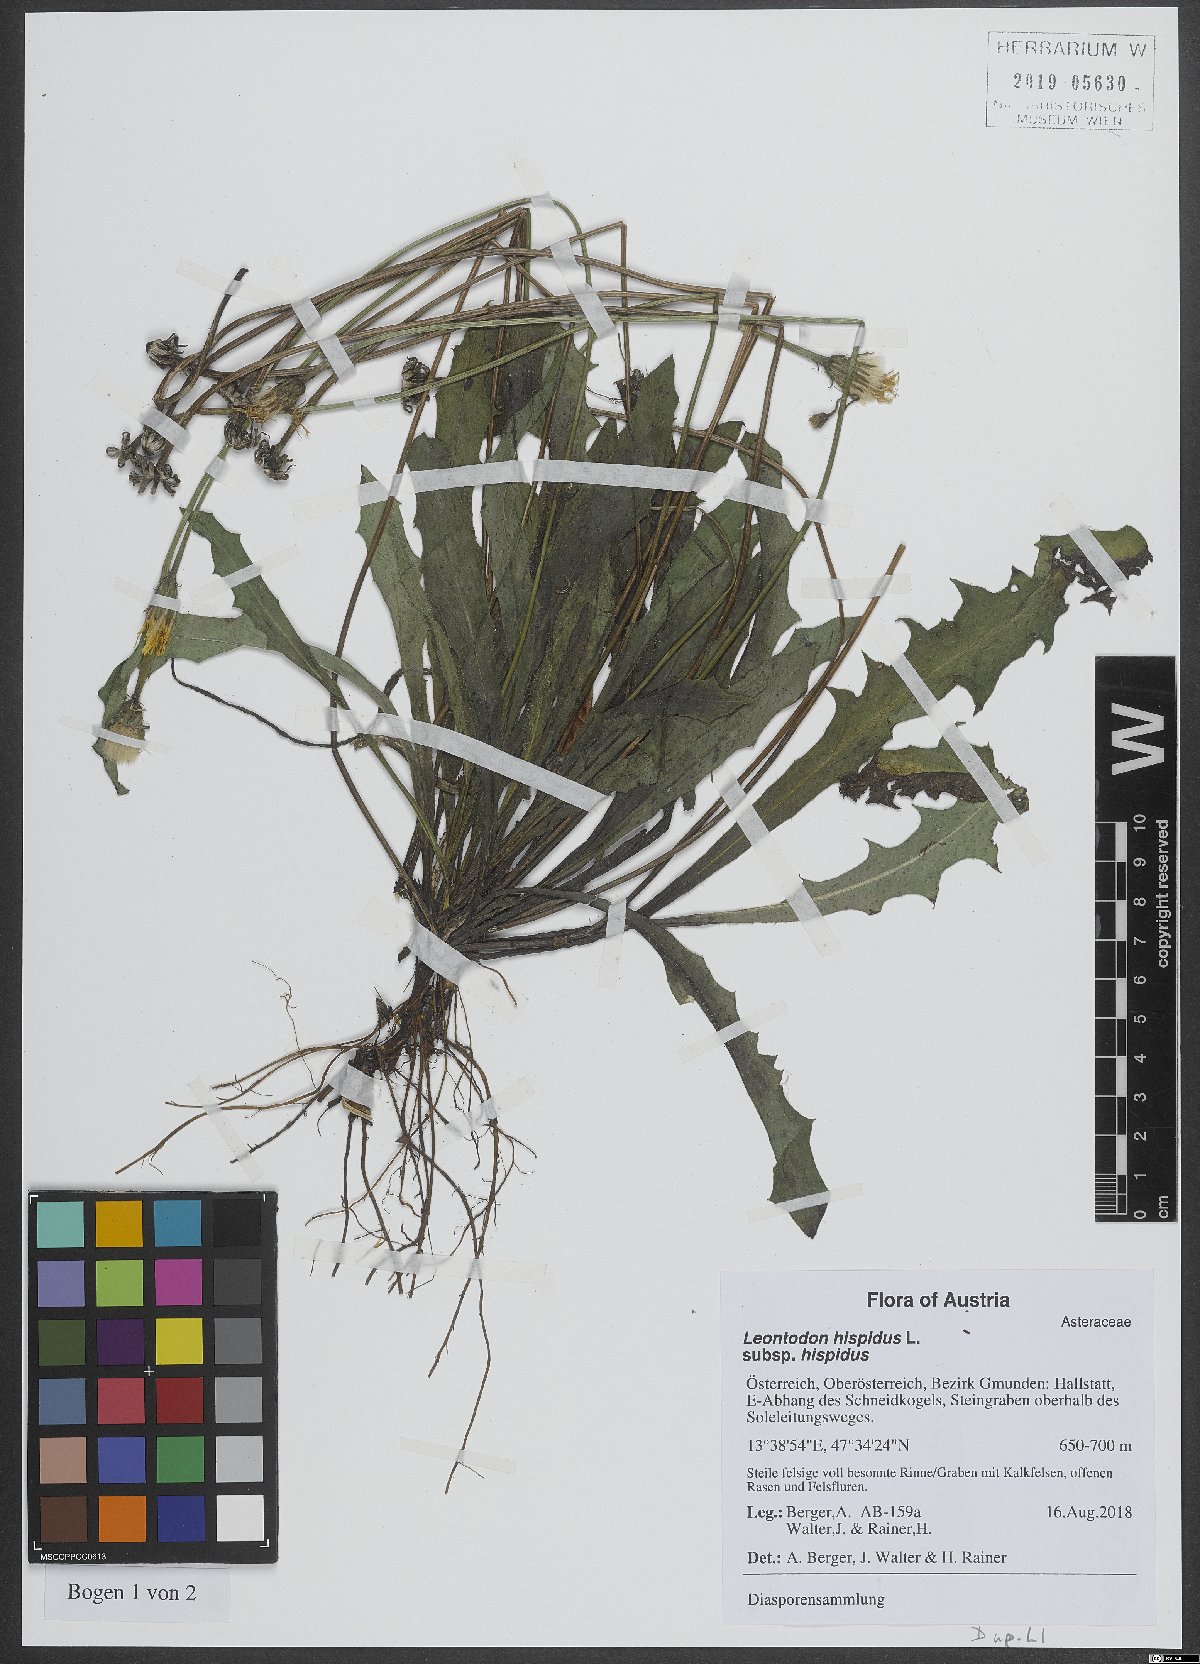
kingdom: Plantae
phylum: Tracheophyta
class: Magnoliopsida
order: Asterales
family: Asteraceae
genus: Leontodon
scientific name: Leontodon hispidus
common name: Rough hawkbit
